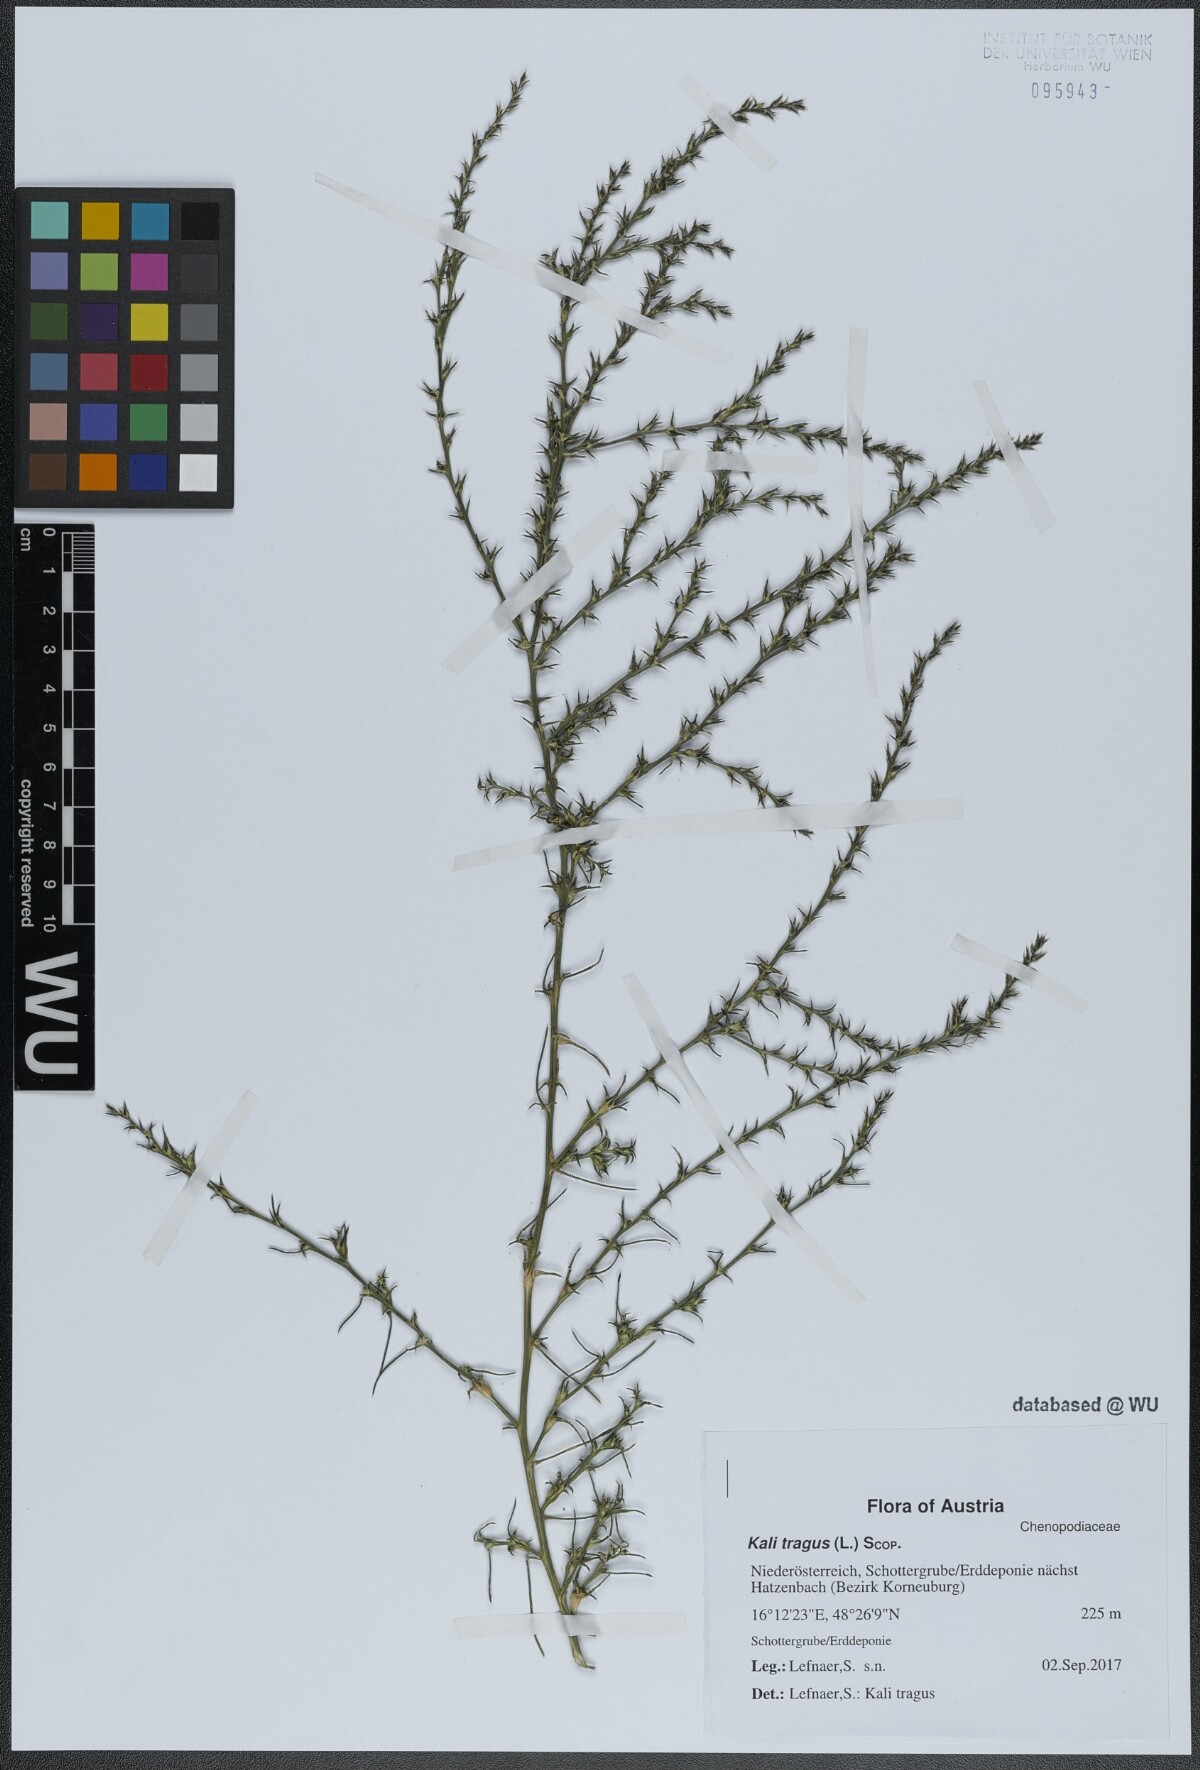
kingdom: Plantae
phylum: Tracheophyta
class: Magnoliopsida
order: Caryophyllales
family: Amaranthaceae
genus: Salsola
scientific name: Salsola tragus
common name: Prickly russian thistle
